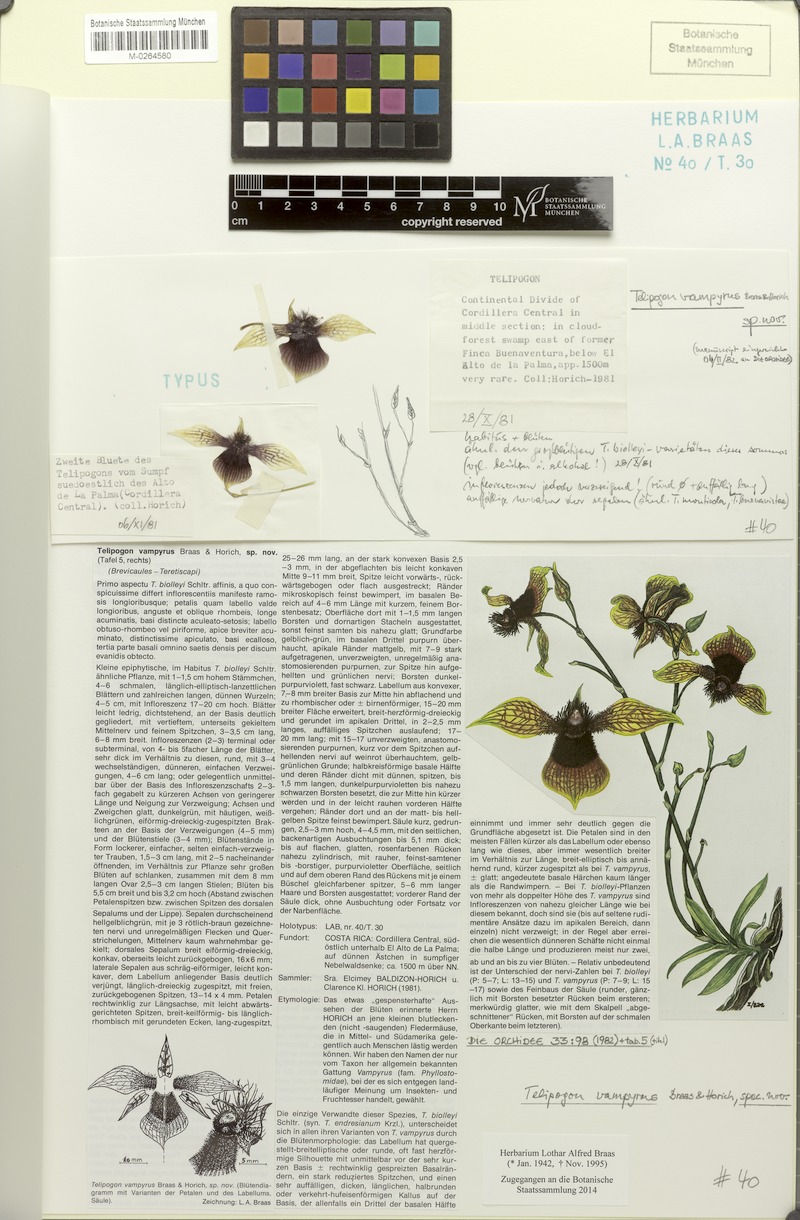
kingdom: Plantae
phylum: Tracheophyta
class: Liliopsida
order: Asparagales
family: Orchidaceae
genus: Telipogon
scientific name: Telipogon vampyrus
